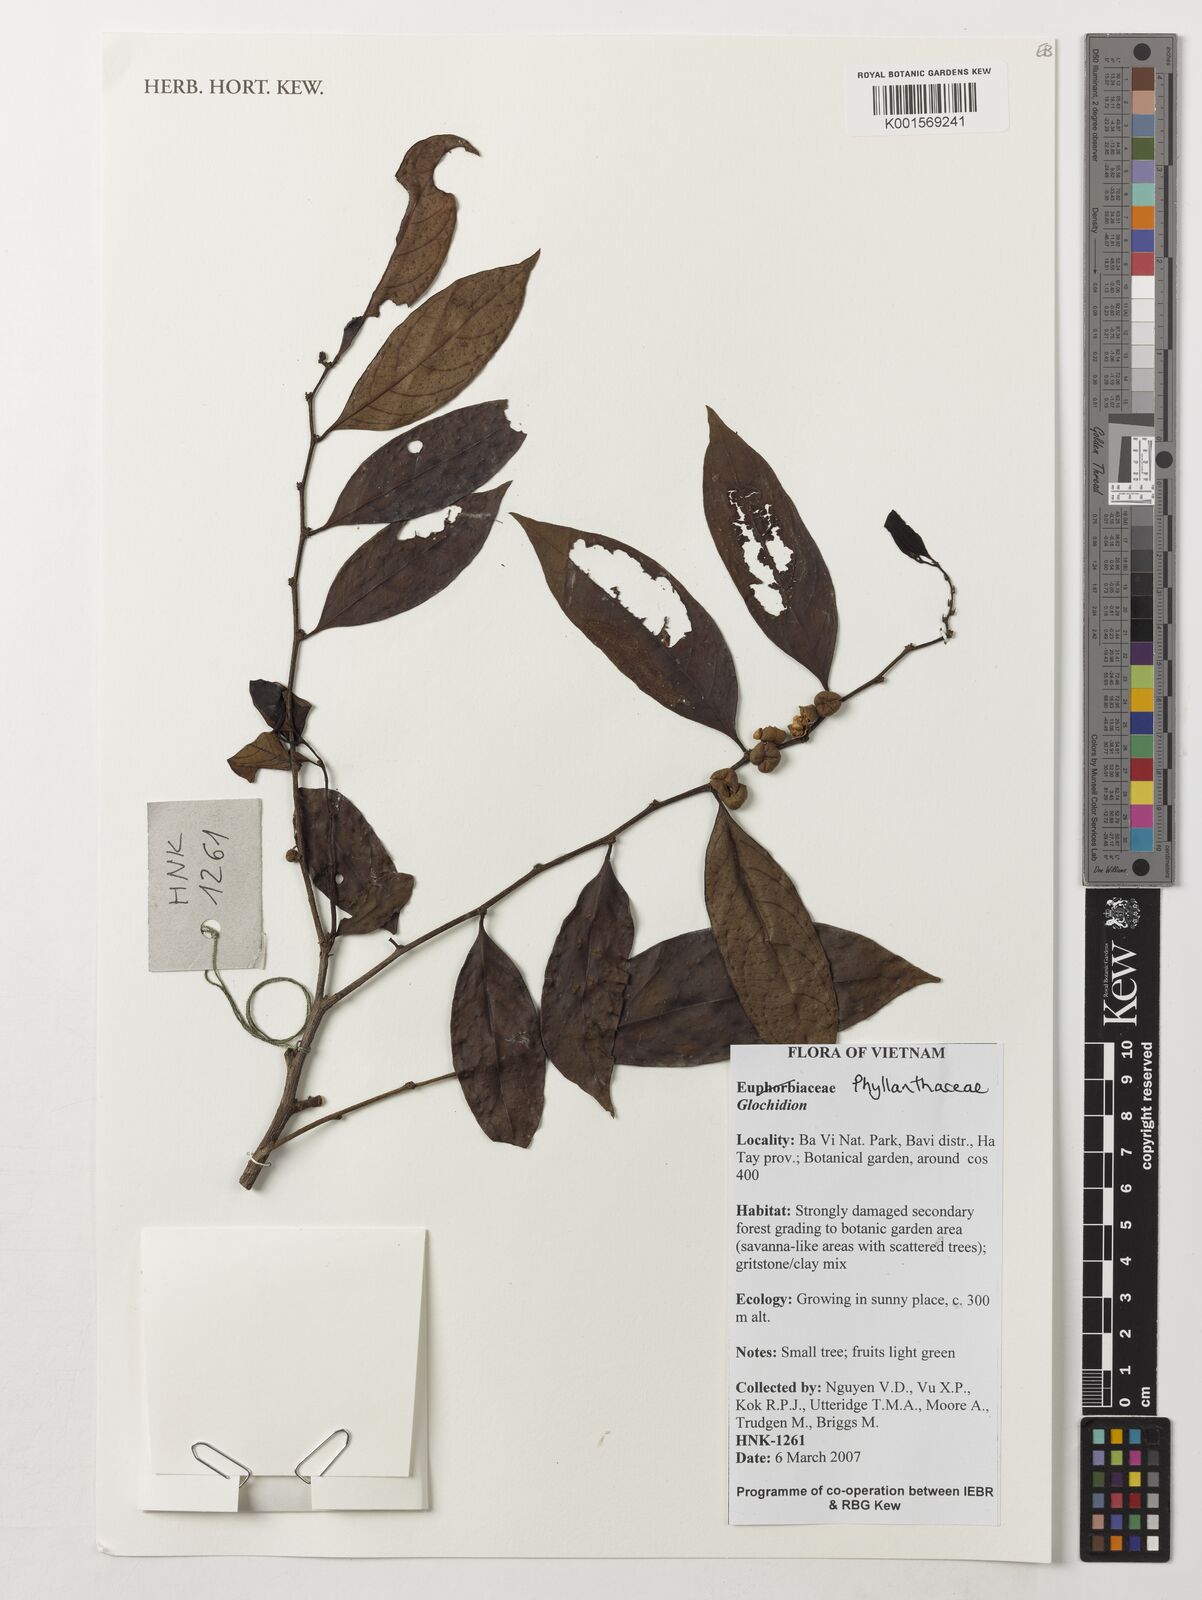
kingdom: Plantae
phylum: Tracheophyta
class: Magnoliopsida
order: Malpighiales
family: Phyllanthaceae
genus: Glochidion
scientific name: Glochidion
